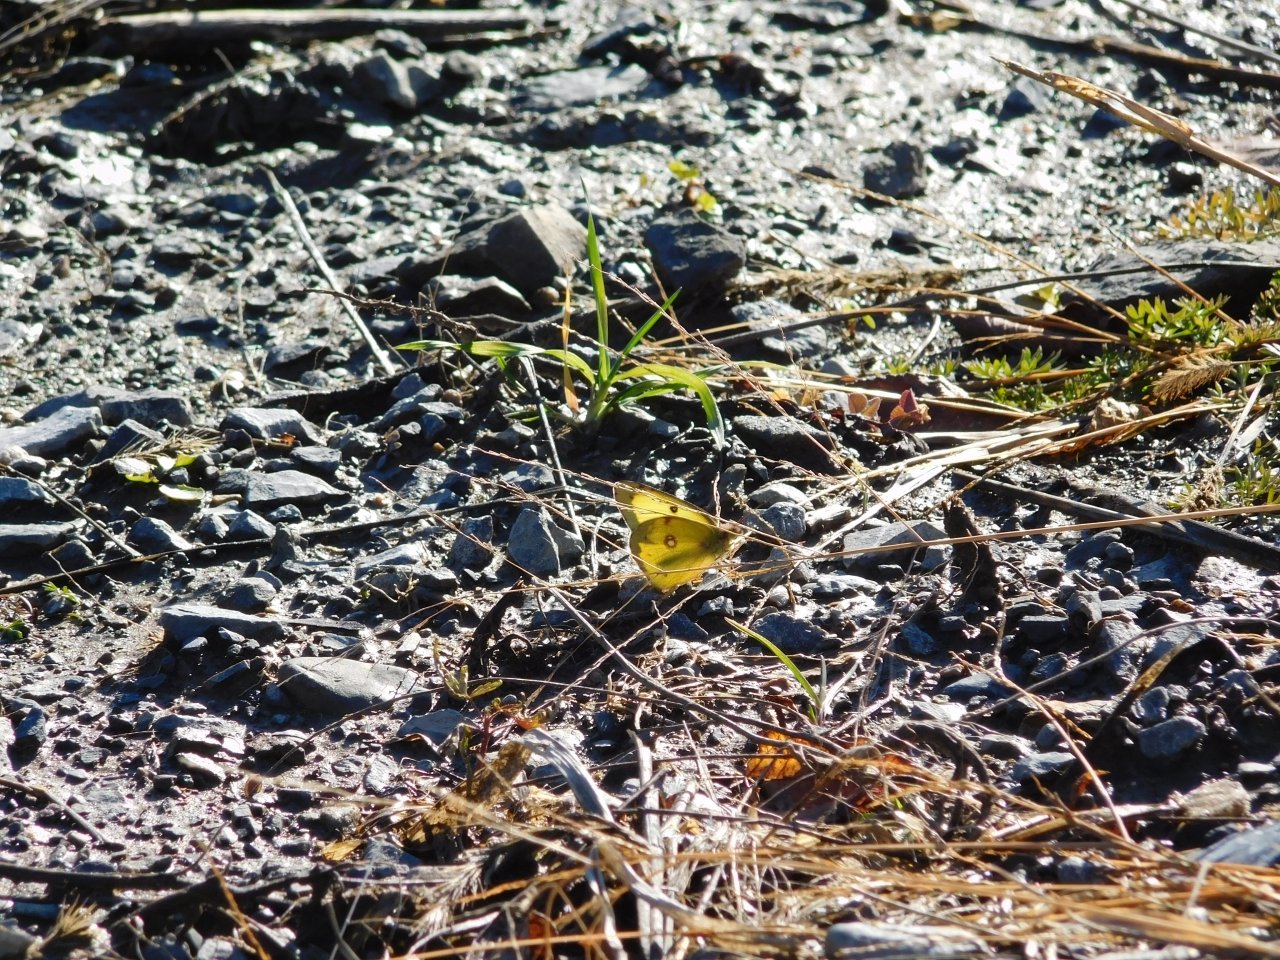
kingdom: Animalia
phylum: Arthropoda
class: Insecta
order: Lepidoptera
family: Pieridae
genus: Colias
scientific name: Colias philodice
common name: Clouded Sulphur
